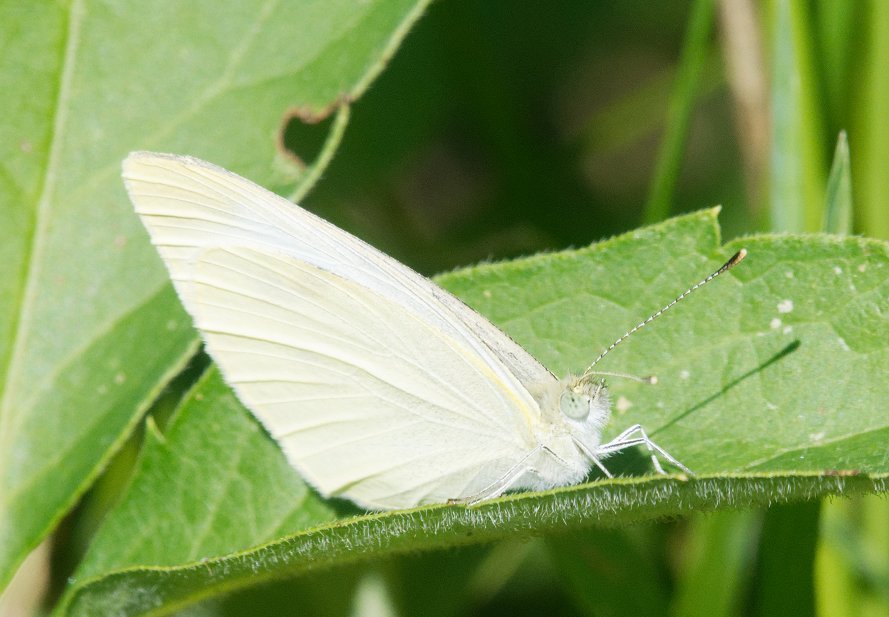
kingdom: Animalia
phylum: Arthropoda
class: Insecta
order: Lepidoptera
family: Pieridae
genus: Pieris
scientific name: Pieris rapae
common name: Cabbage White
